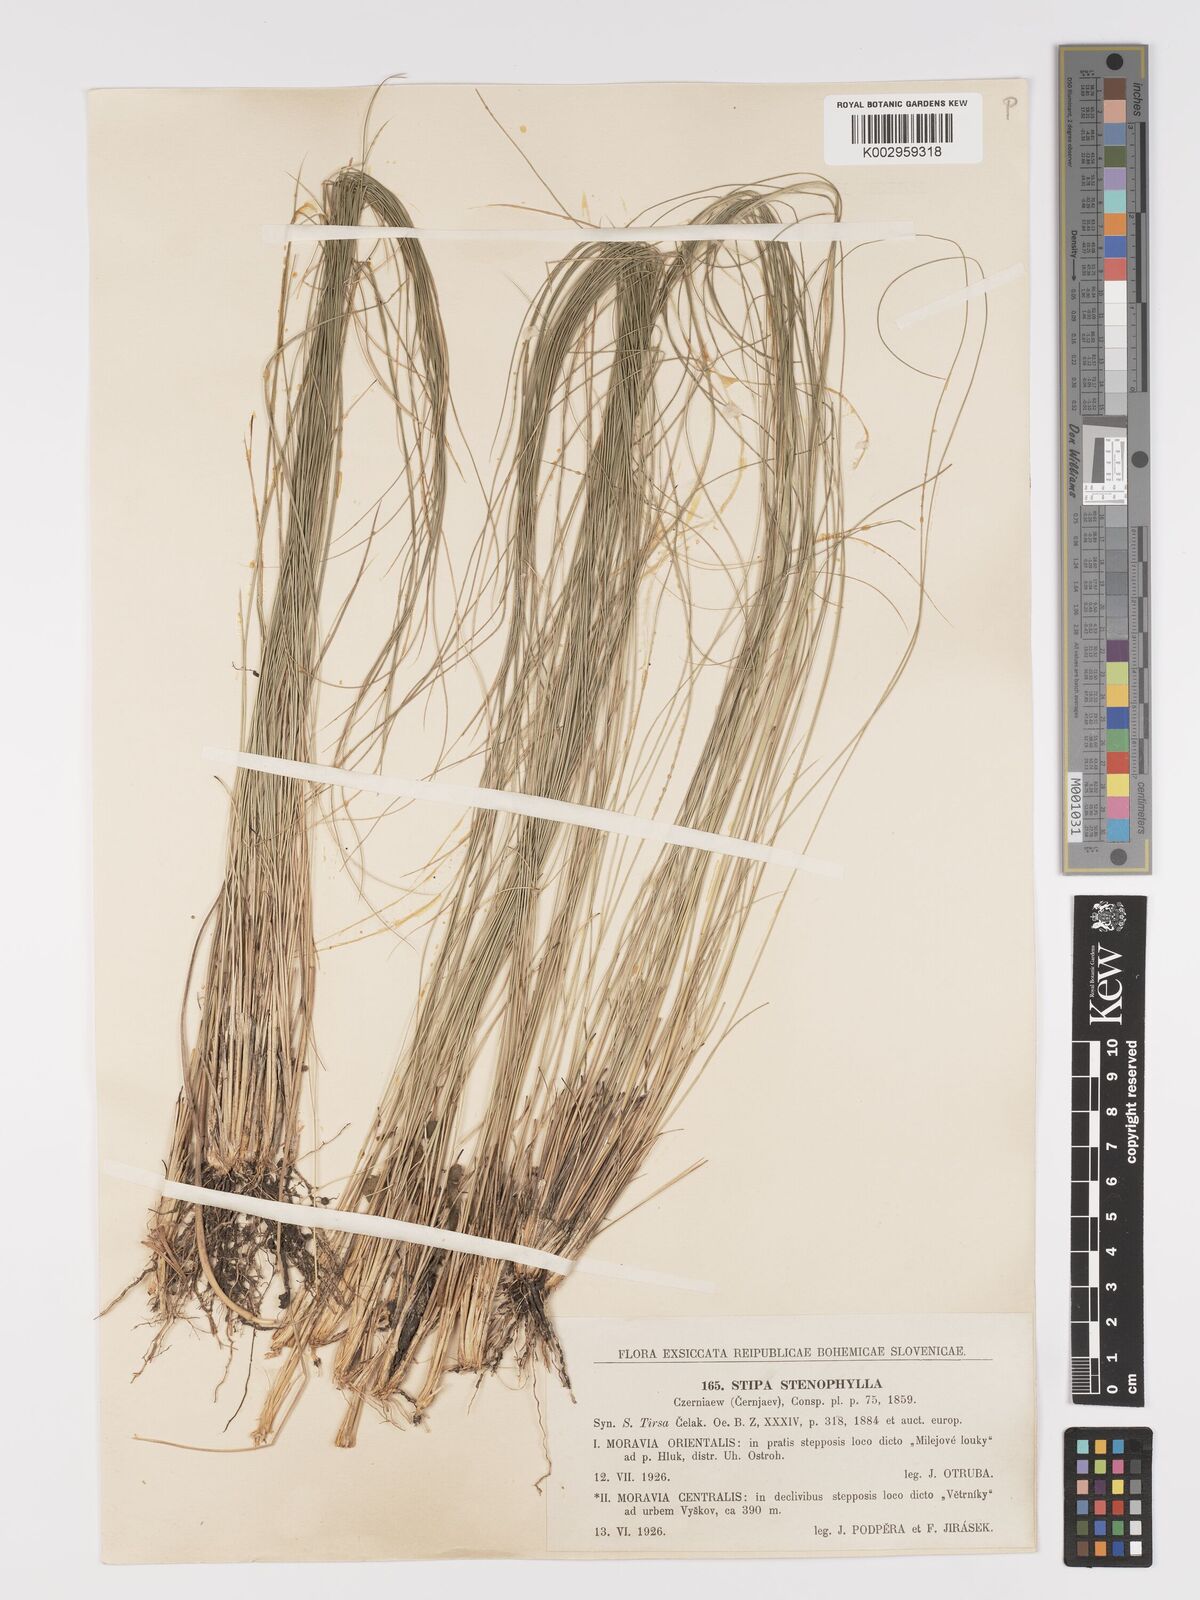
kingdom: Plantae
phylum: Tracheophyta
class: Liliopsida
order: Poales
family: Poaceae
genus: Stipa
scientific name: Stipa tirsa
